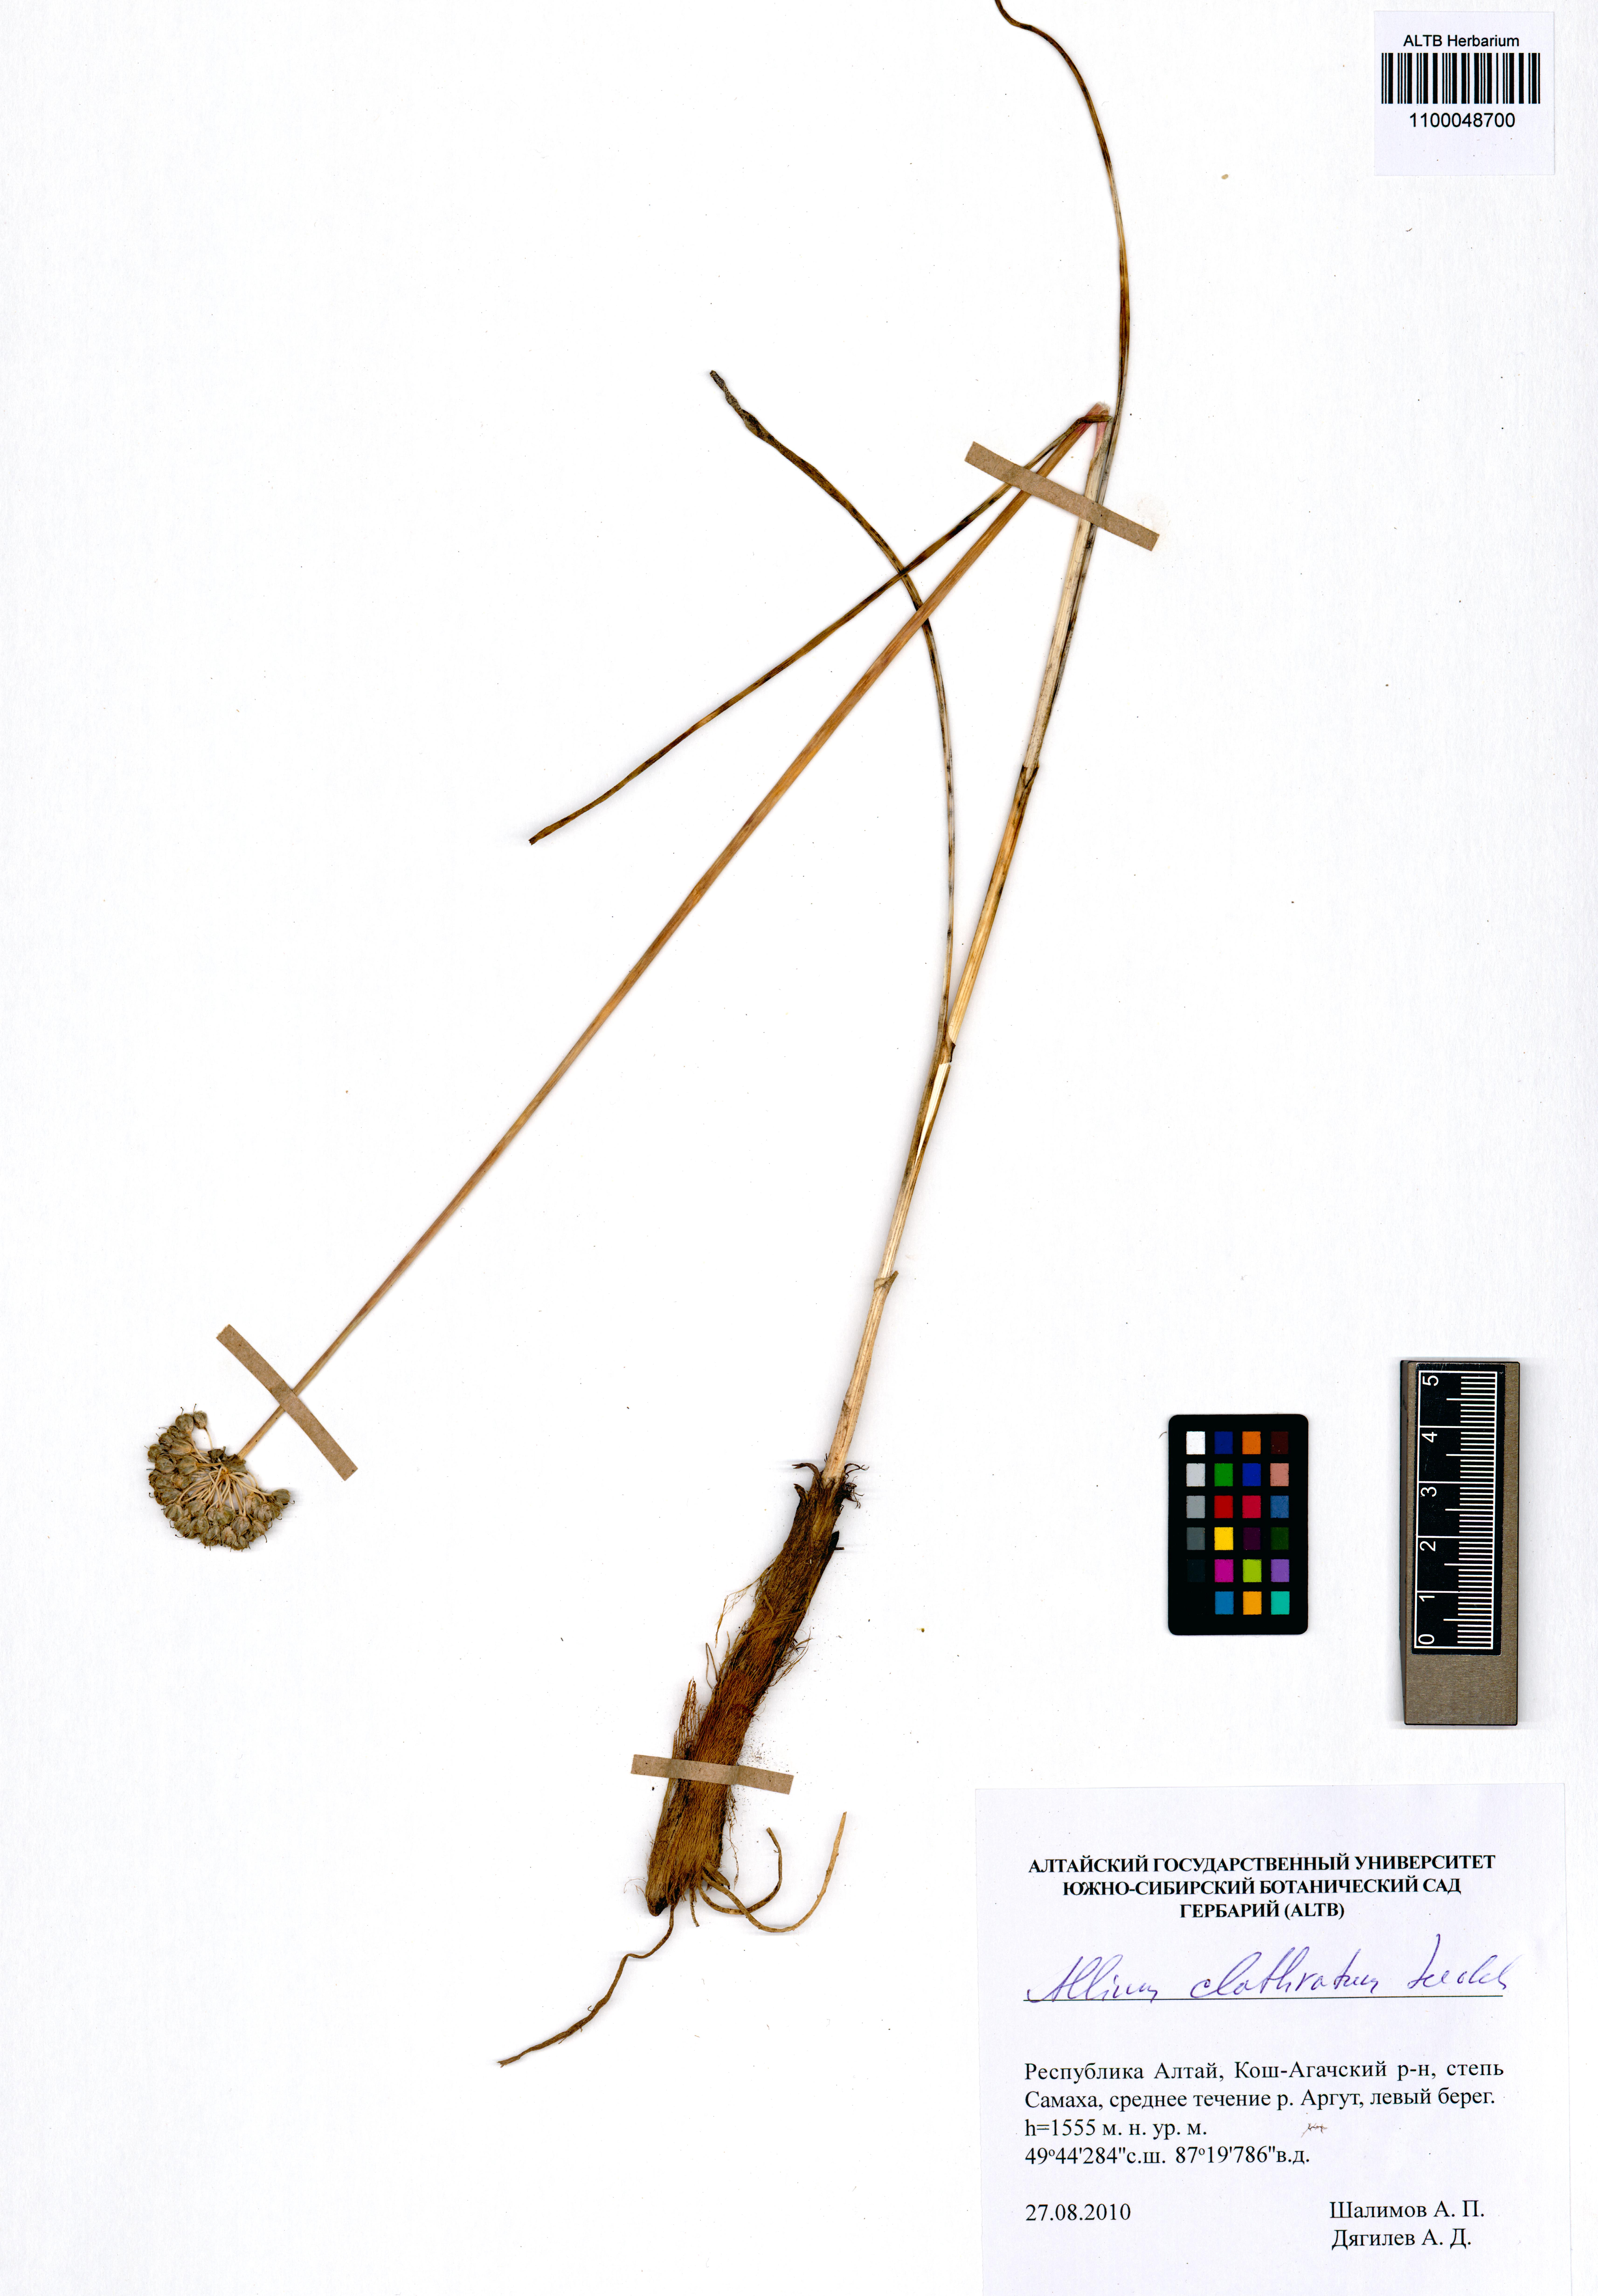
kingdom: Plantae
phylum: Tracheophyta
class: Liliopsida
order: Asparagales
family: Amaryllidaceae
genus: Allium
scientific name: Allium clathratum
